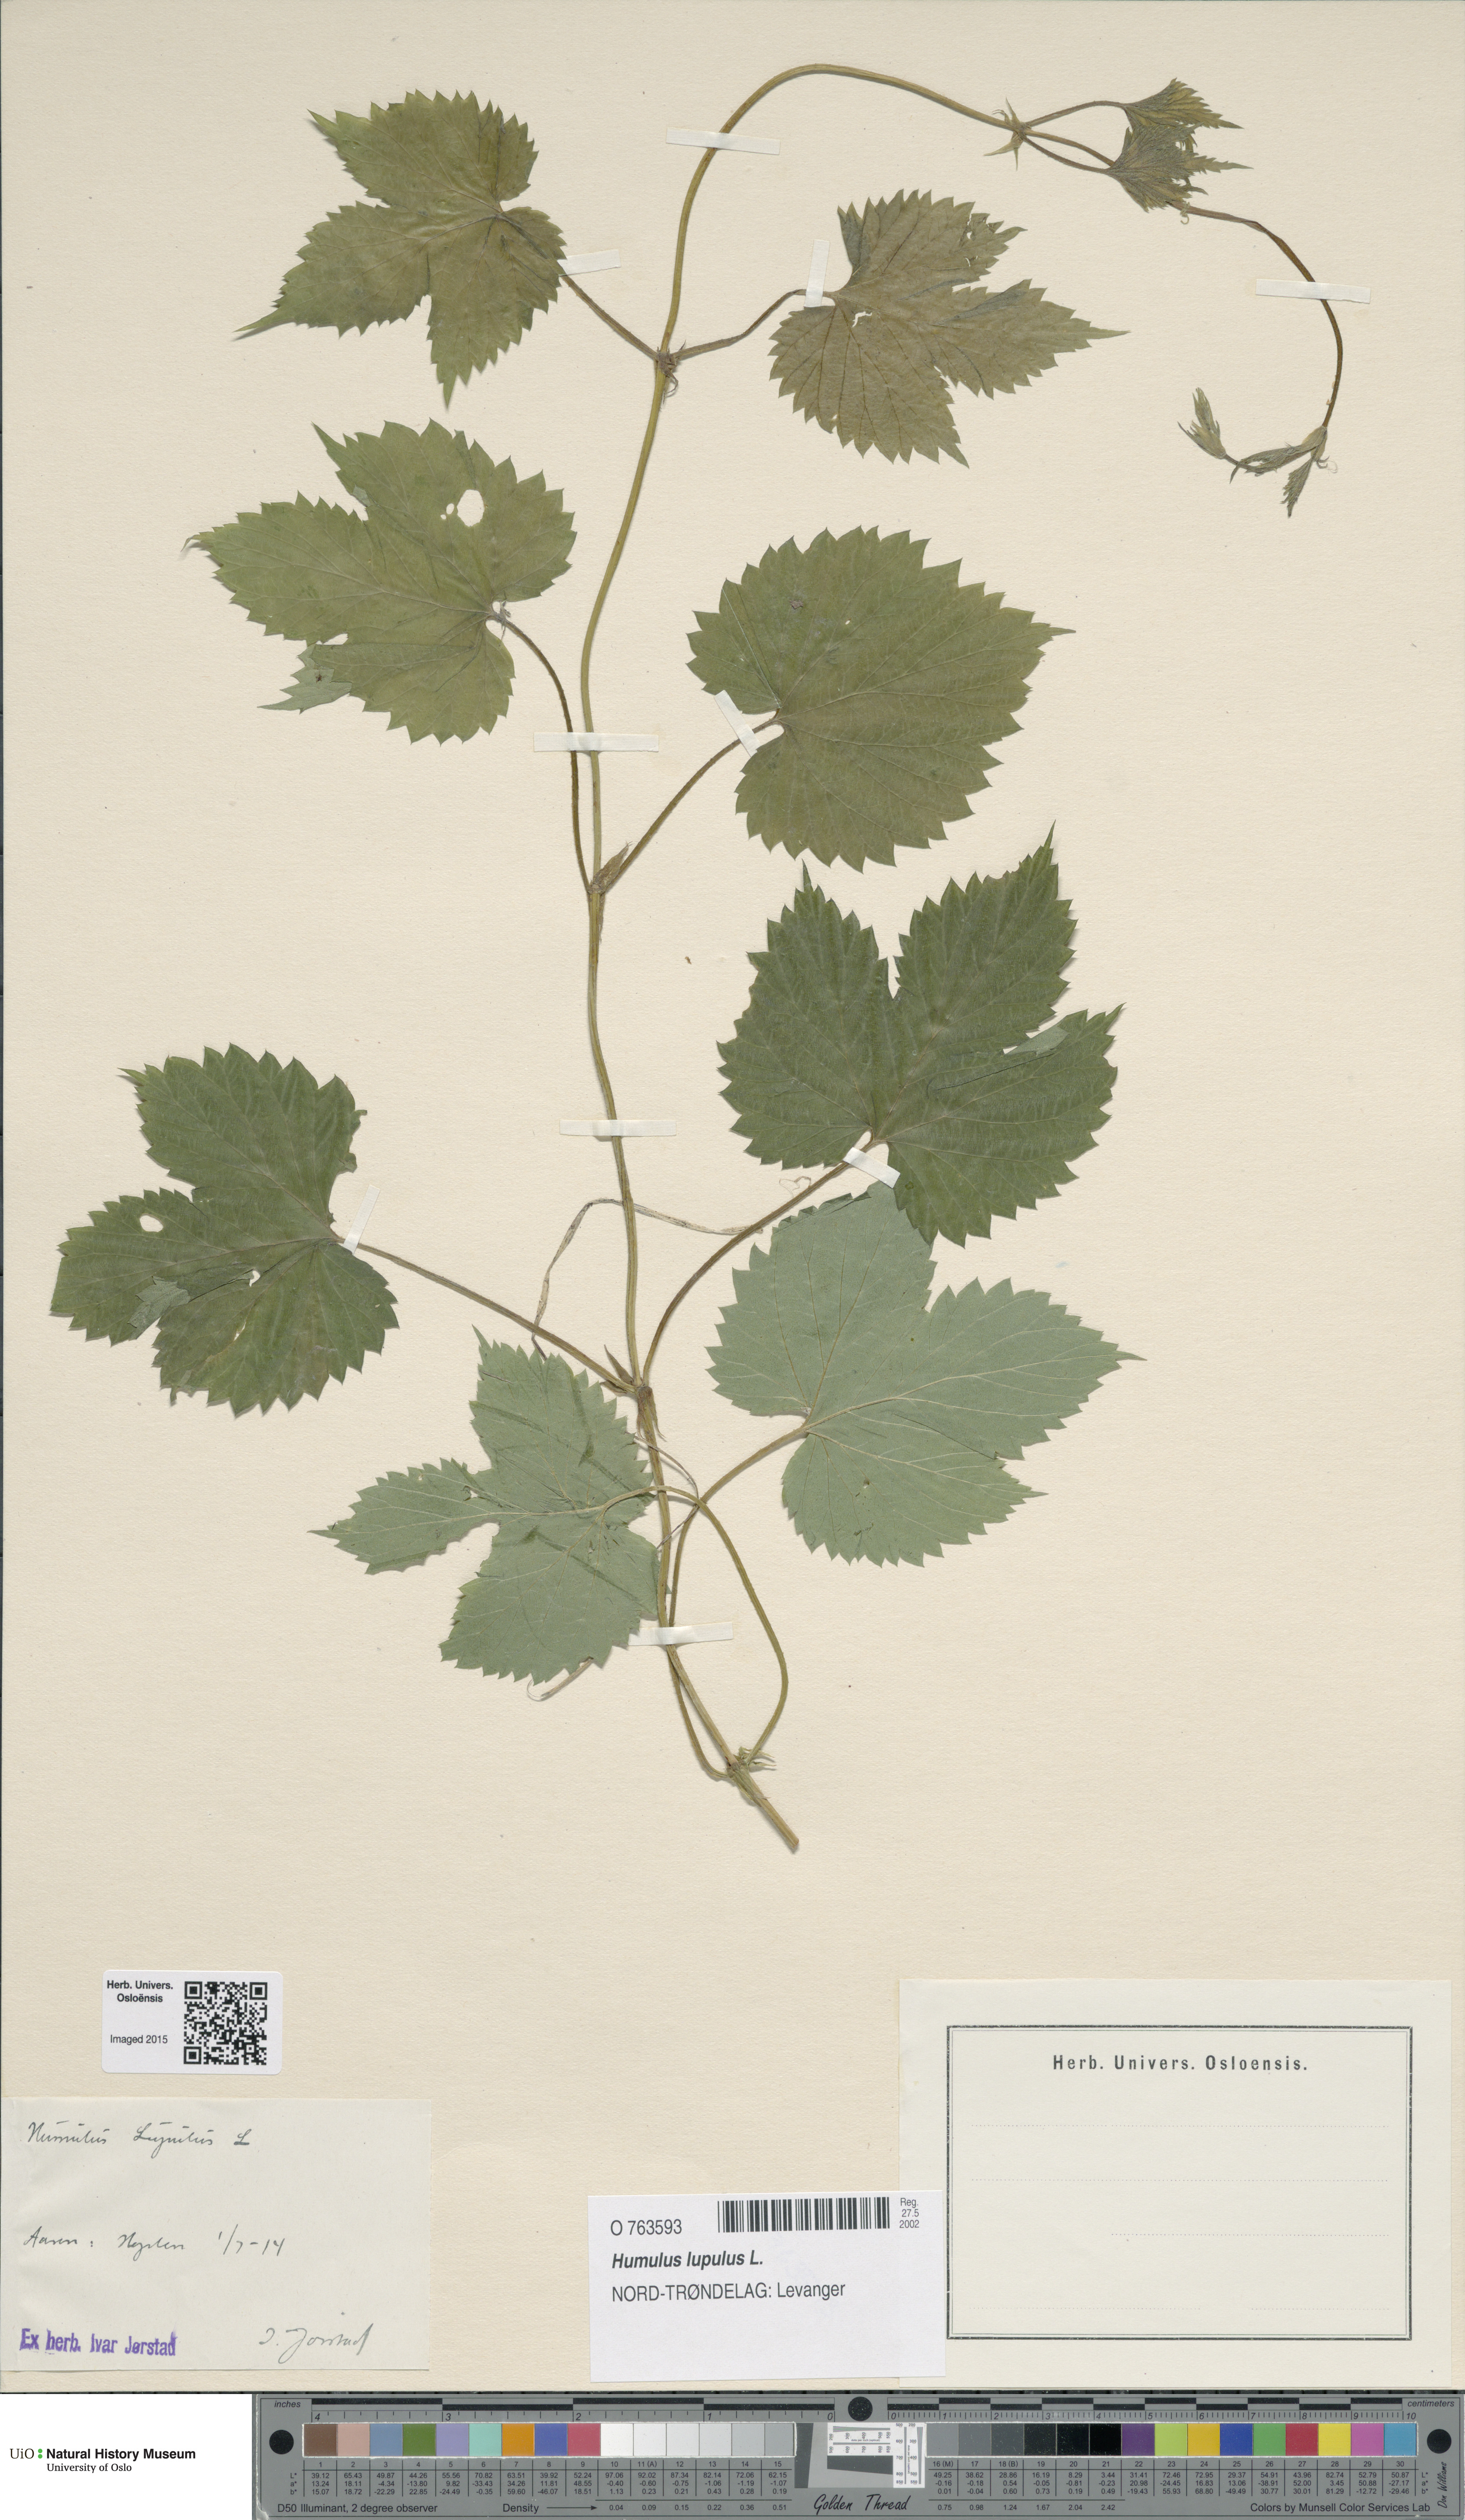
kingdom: Plantae
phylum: Tracheophyta
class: Magnoliopsida
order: Rosales
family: Cannabaceae
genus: Humulus
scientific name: Humulus lupulus
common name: Hop
